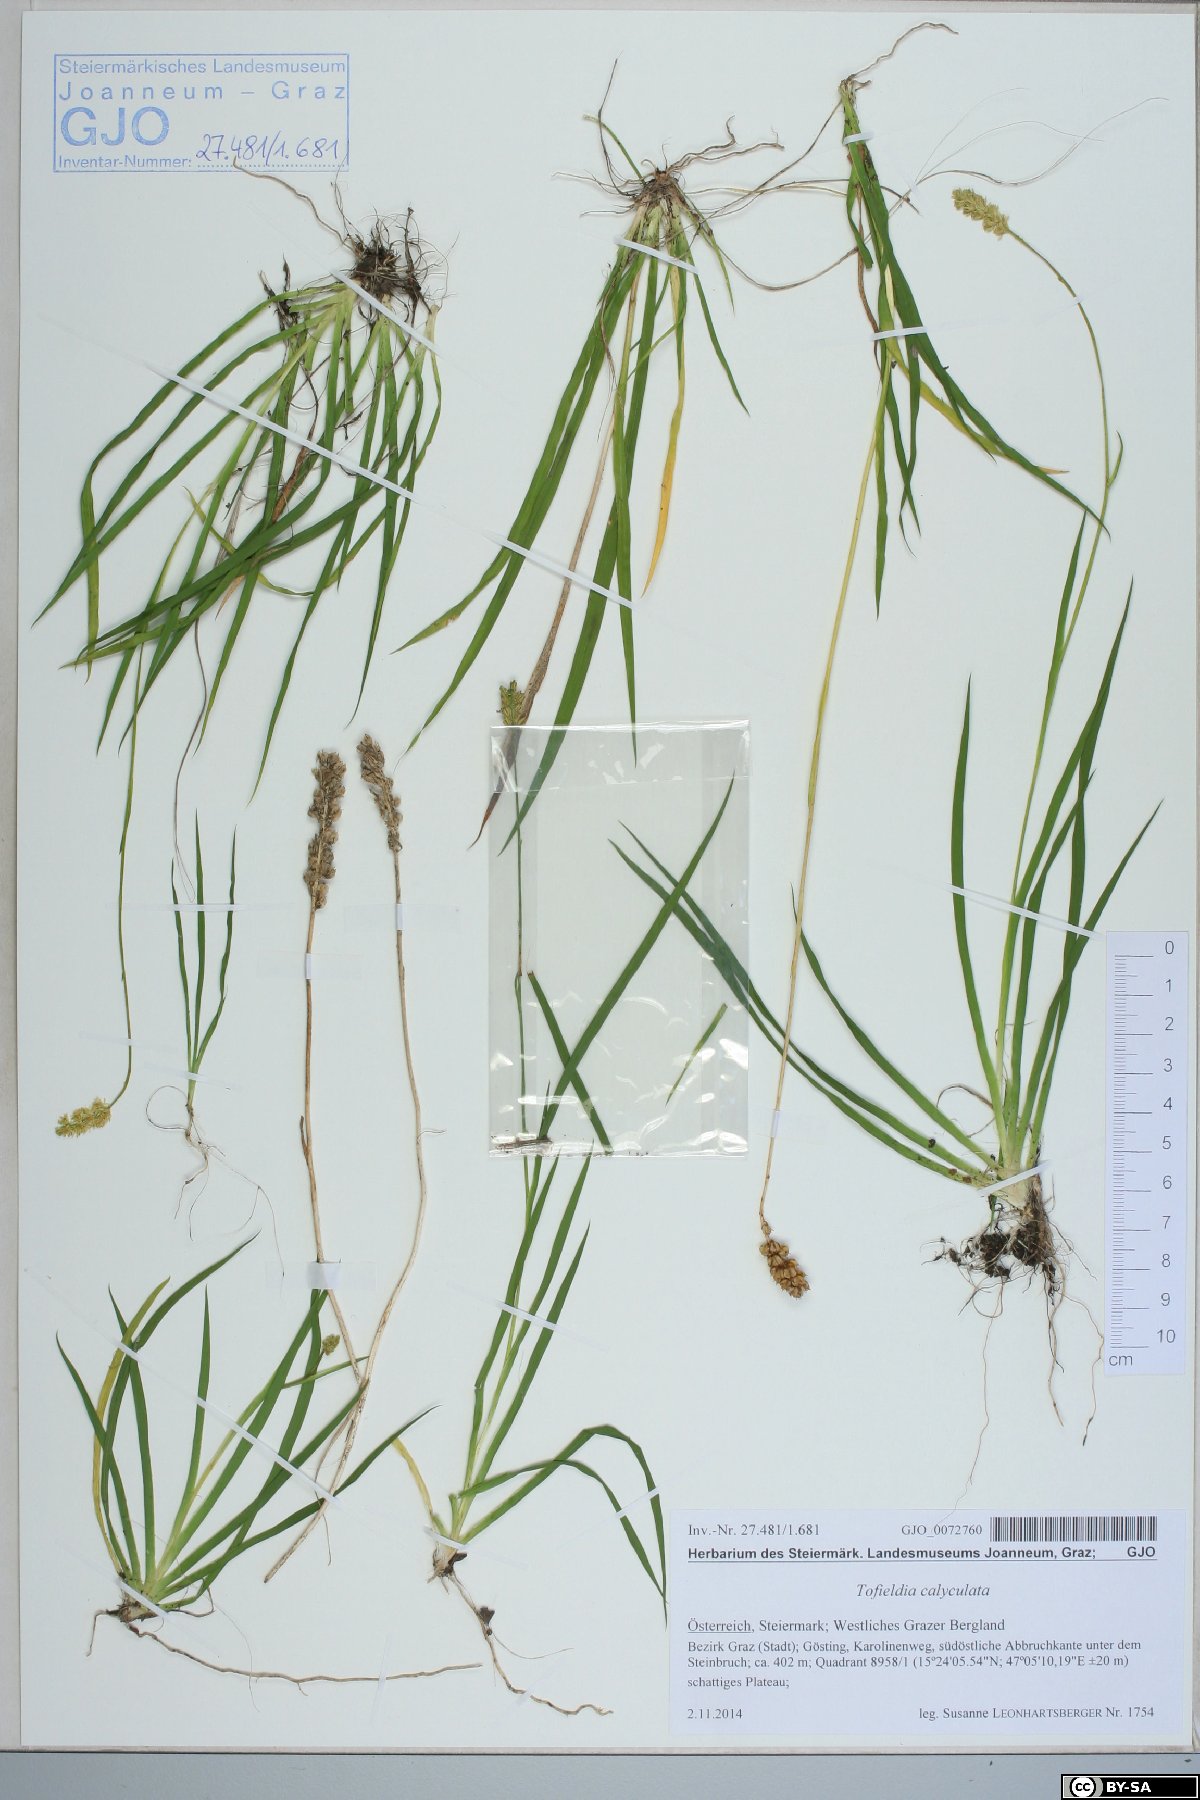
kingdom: Plantae
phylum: Tracheophyta
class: Liliopsida
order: Alismatales
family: Tofieldiaceae
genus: Tofieldia
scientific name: Tofieldia calyculata
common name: German-asphodel
